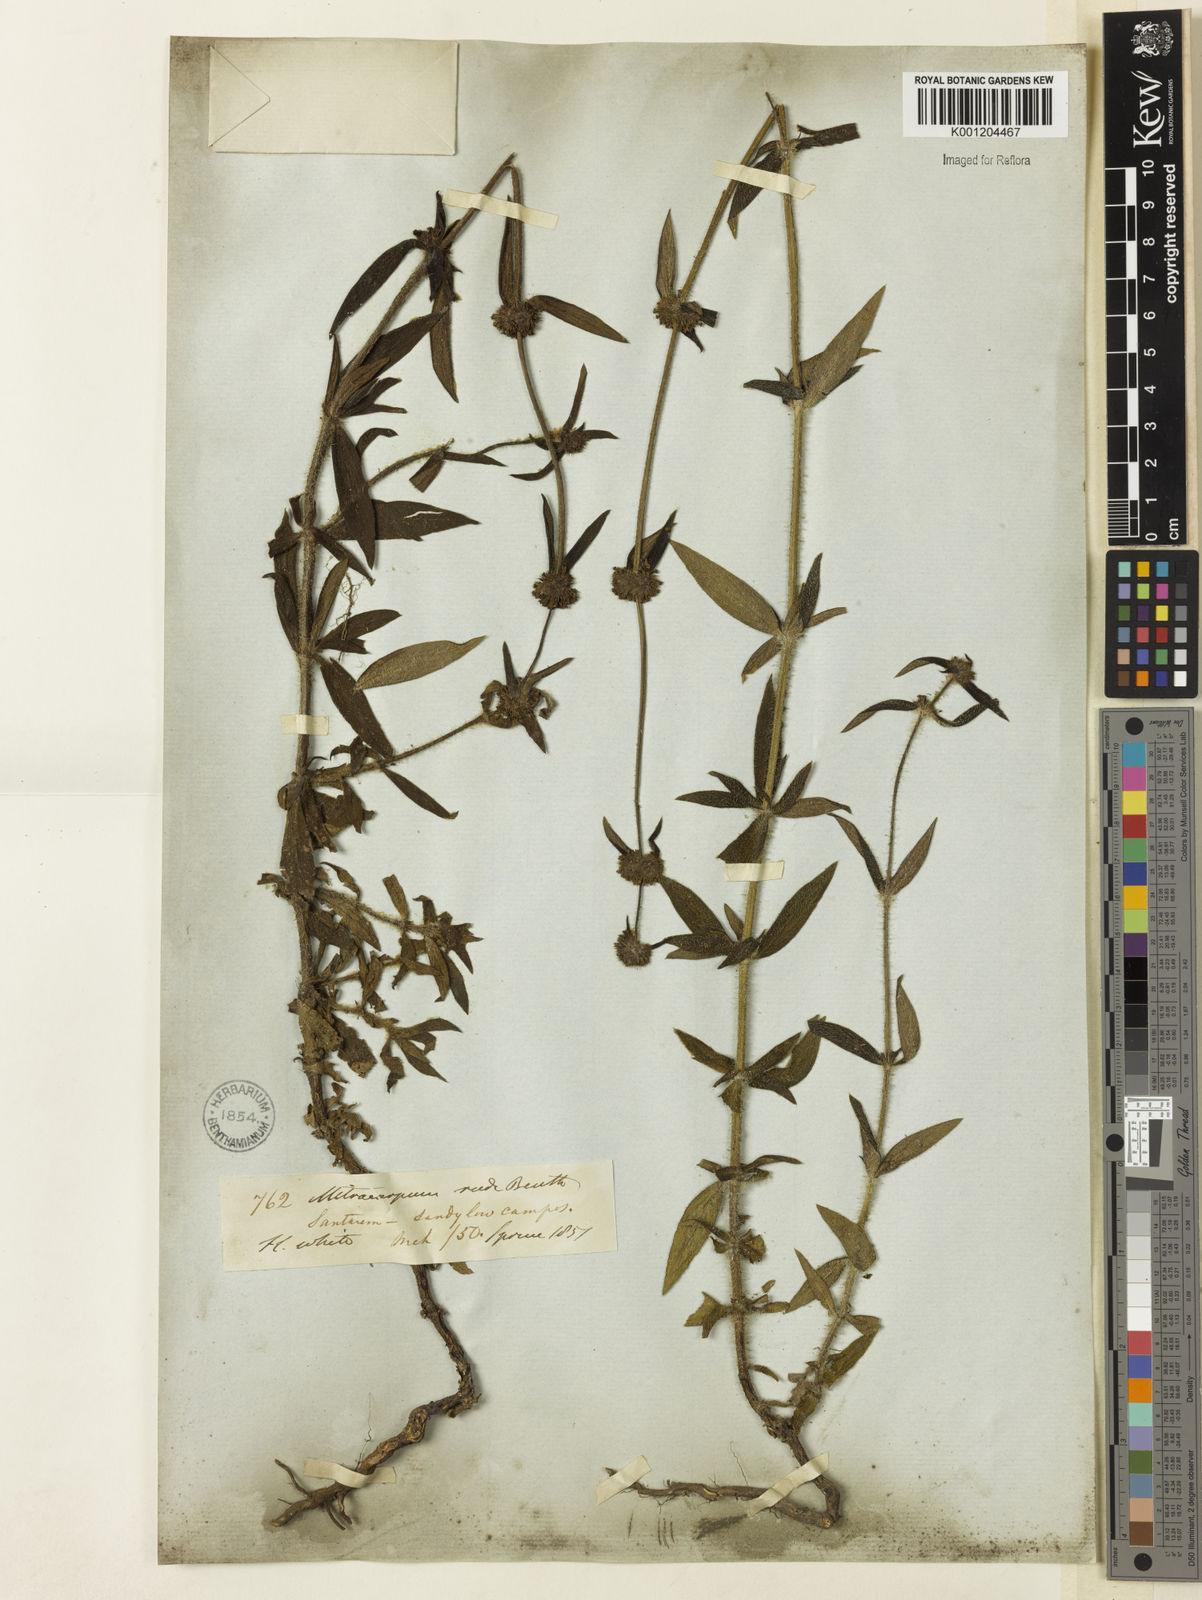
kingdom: Plantae
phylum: Tracheophyta
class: Magnoliopsida
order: Gentianales
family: Rubiaceae
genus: Mitracarpus
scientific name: Mitracarpus frigidus
